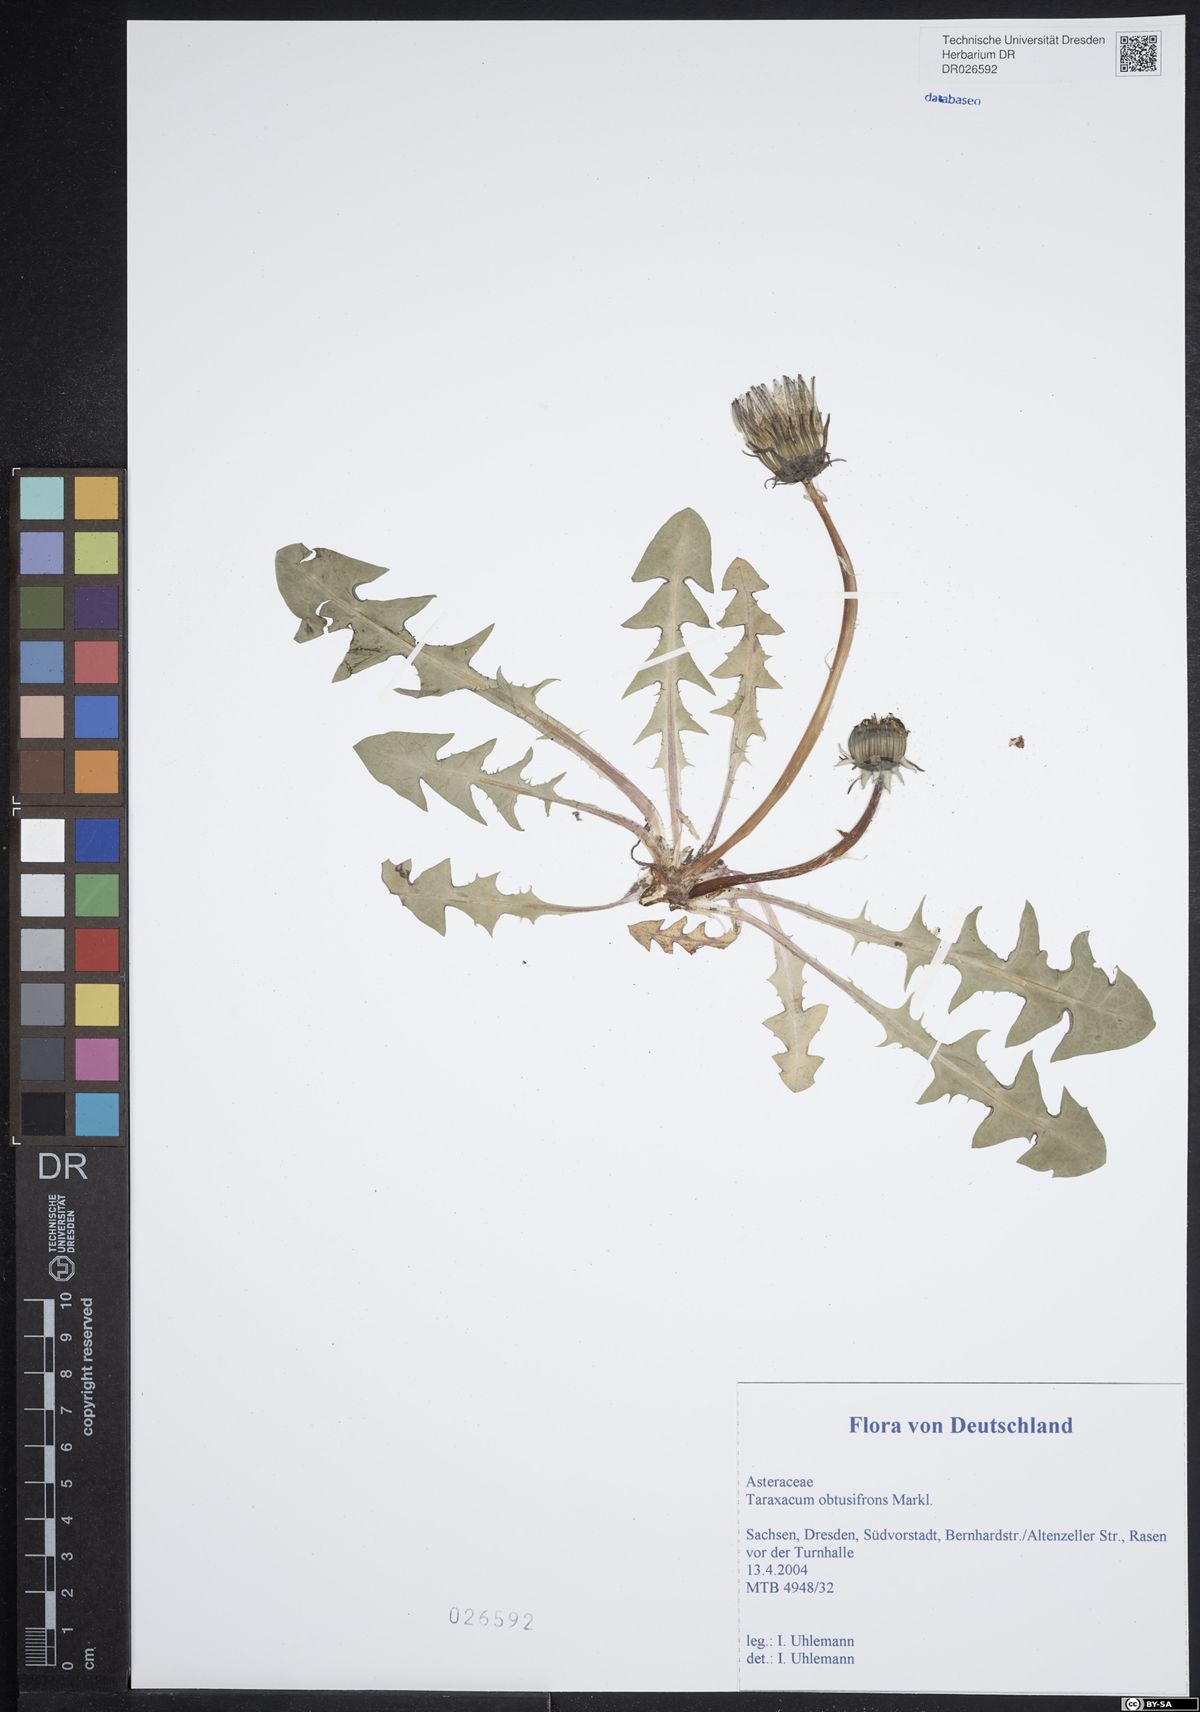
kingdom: Plantae
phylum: Tracheophyta
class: Magnoliopsida
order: Asterales
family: Asteraceae
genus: Taraxacum
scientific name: Taraxacum obtusifrons
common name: Obtuse-leaved dandelion
